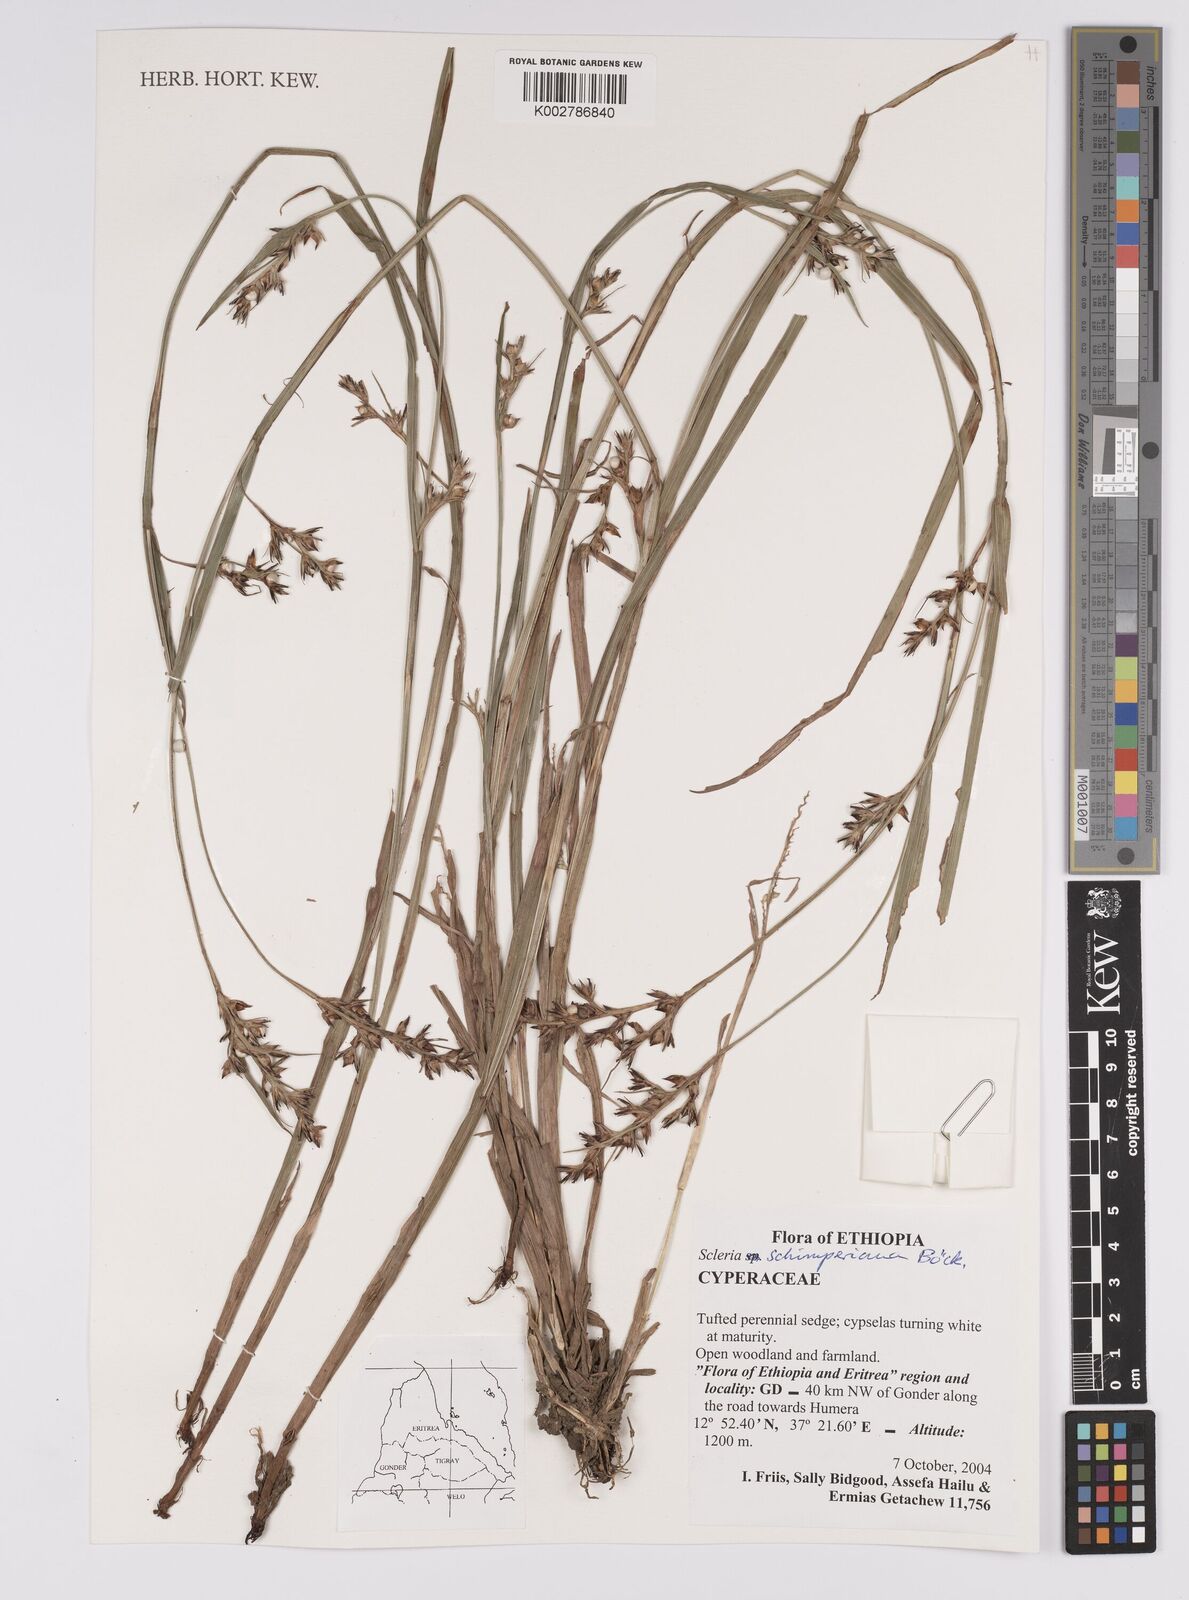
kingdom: Plantae
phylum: Tracheophyta
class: Liliopsida
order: Poales
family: Cyperaceae
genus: Scleria
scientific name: Scleria schimperiana
